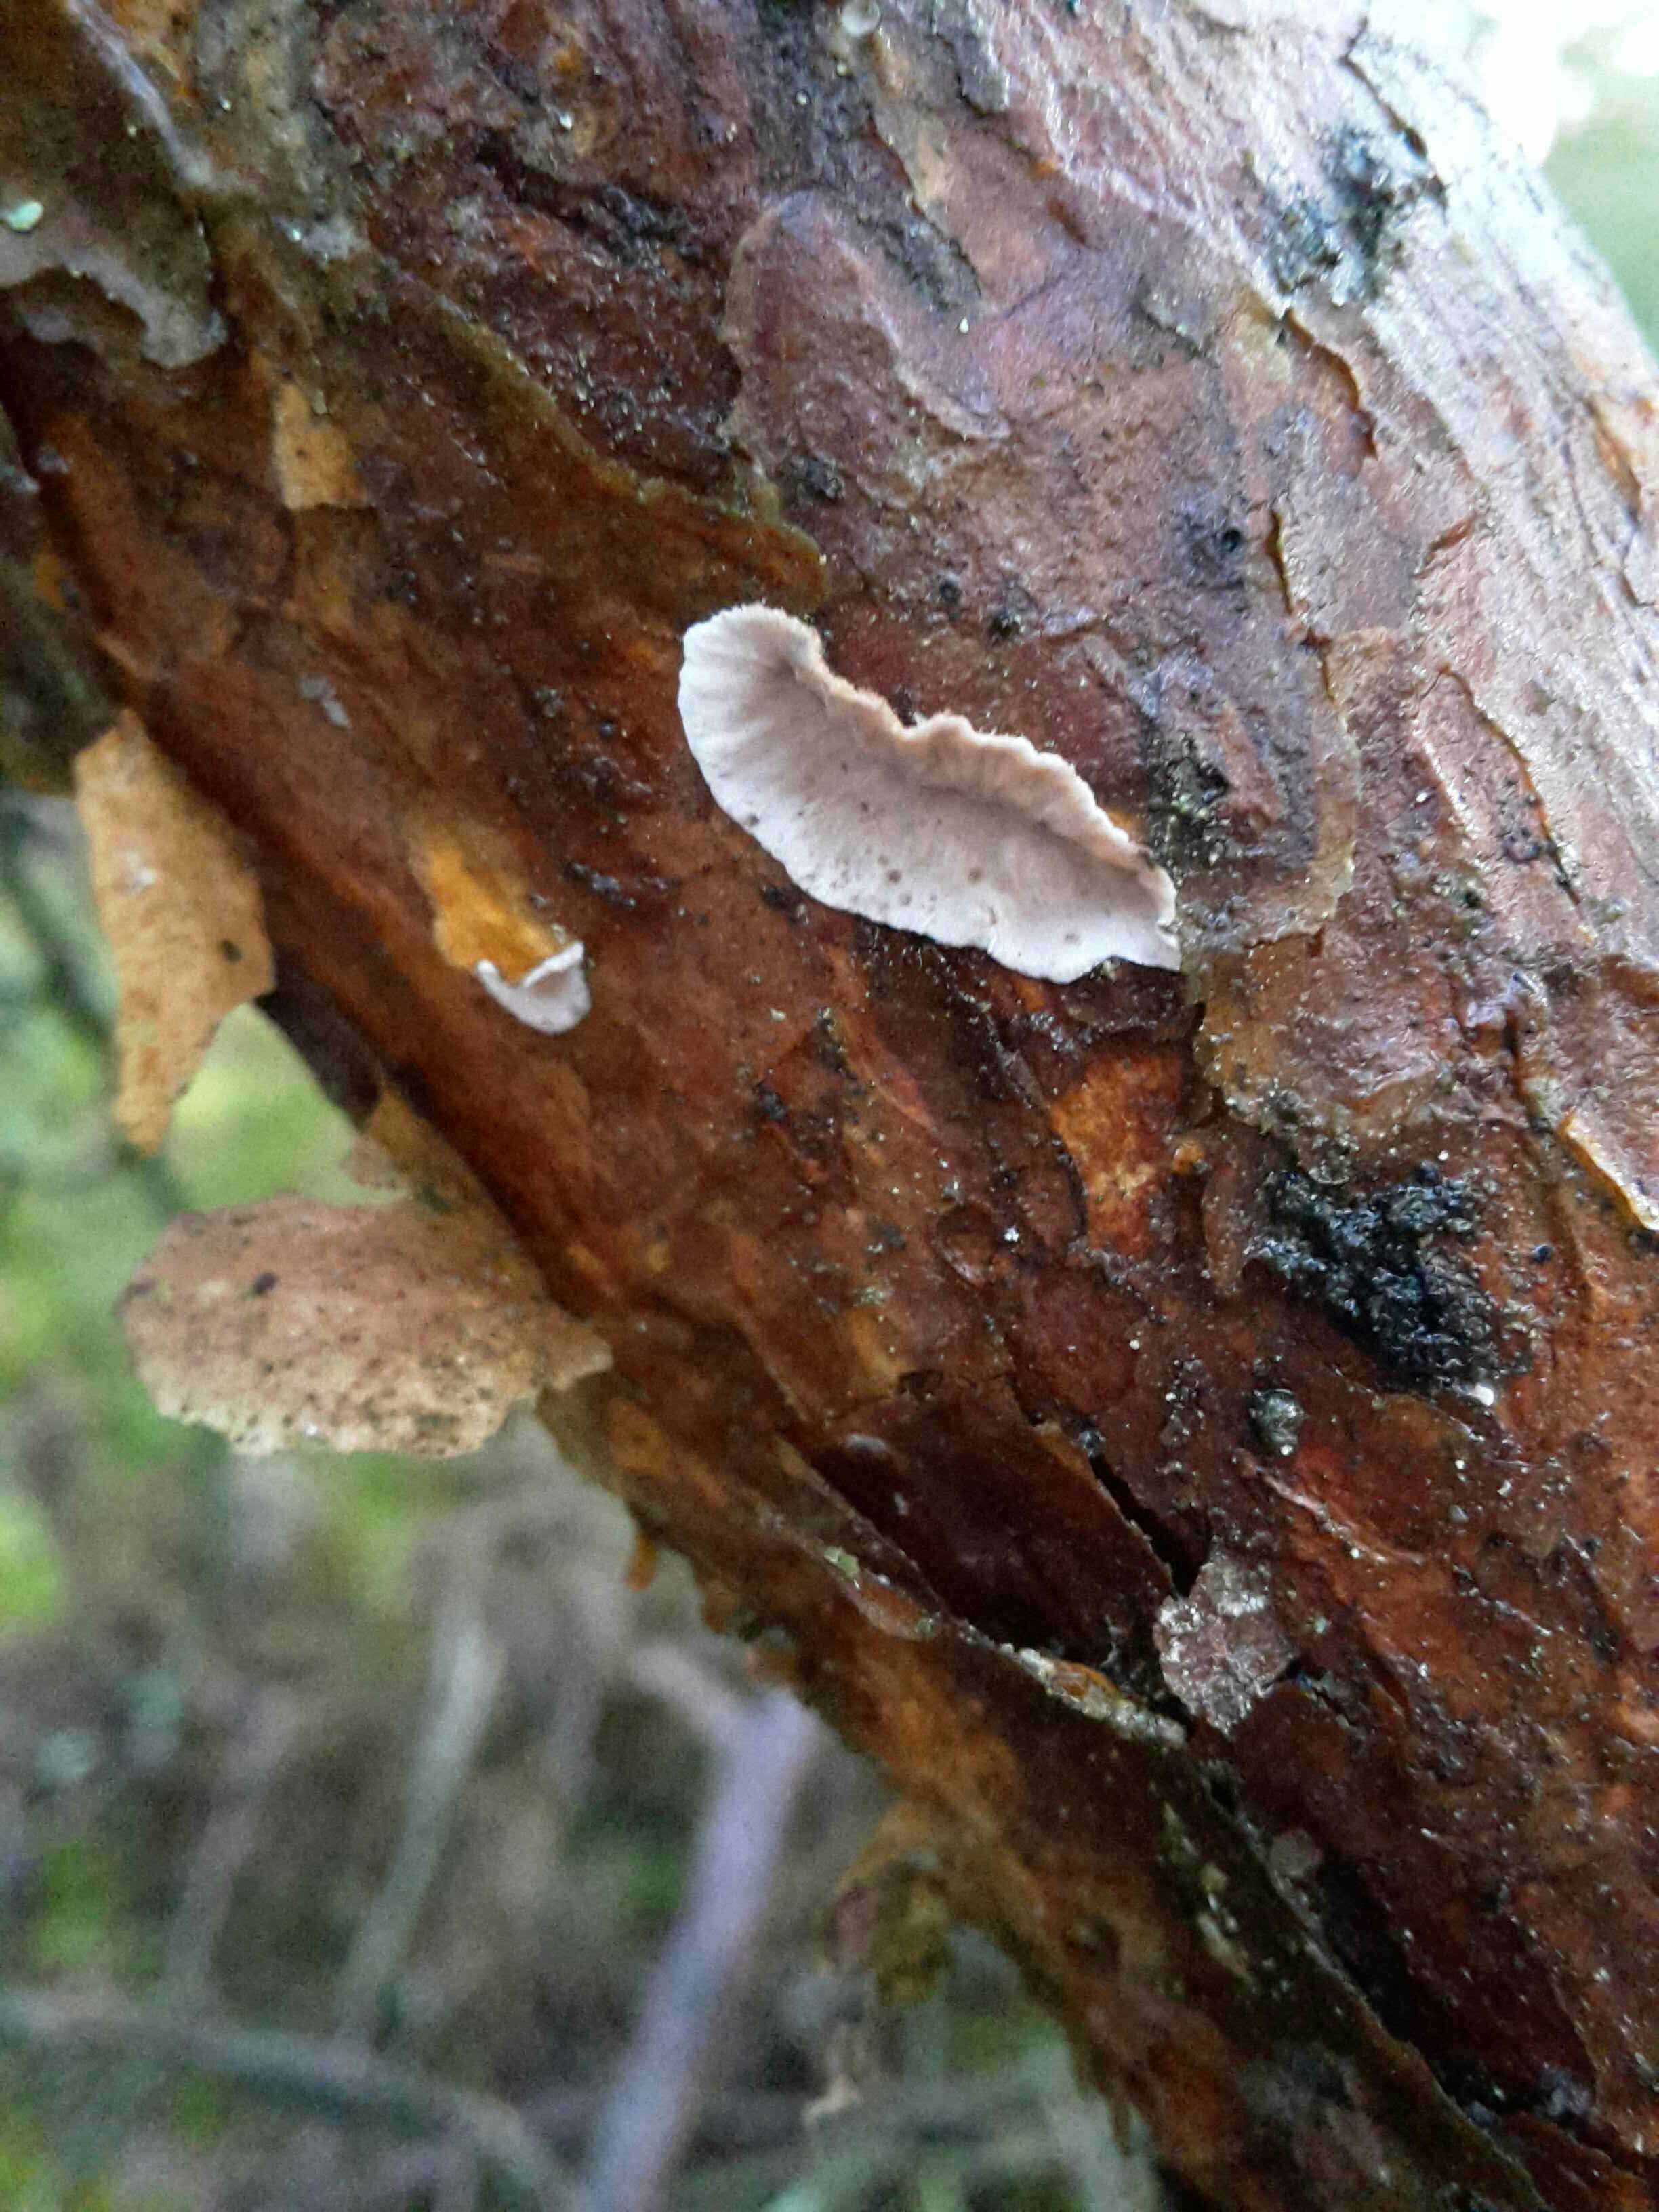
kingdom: Fungi
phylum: Basidiomycota
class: Agaricomycetes
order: Russulales
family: Stereaceae
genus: Stereum
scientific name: Stereum sanguinolentum
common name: blødende lædersvamp
